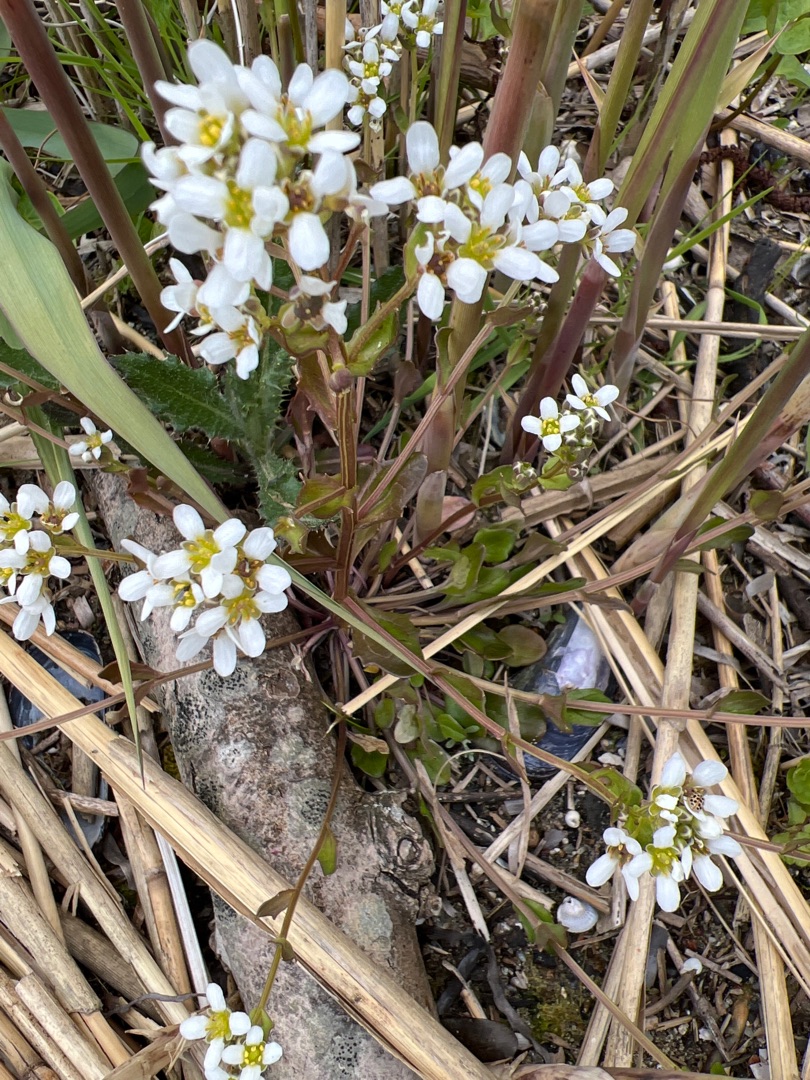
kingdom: Plantae
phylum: Tracheophyta
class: Magnoliopsida
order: Brassicales
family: Brassicaceae
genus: Cochlearia
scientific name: Cochlearia officinalis
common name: Læge-kokleare
